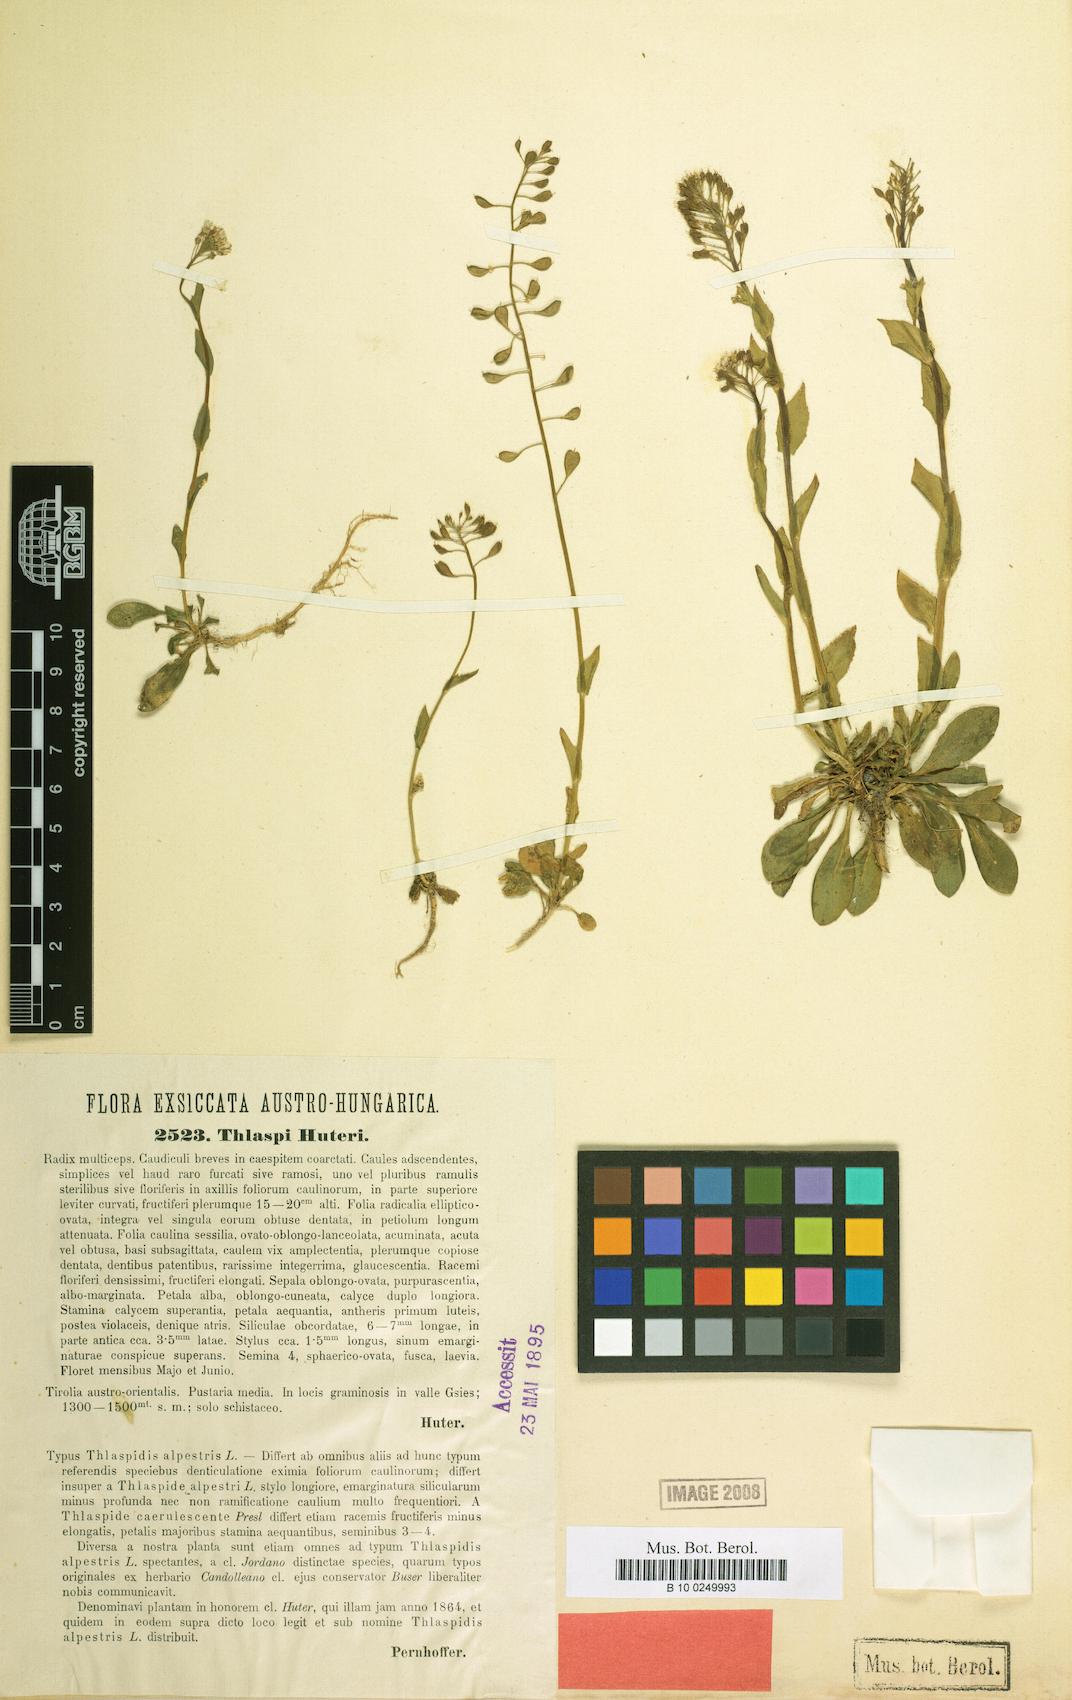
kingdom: Plantae
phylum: Tracheophyta
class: Magnoliopsida
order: Brassicales
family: Brassicaceae
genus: Noccaea
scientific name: Noccaea brachypetala
